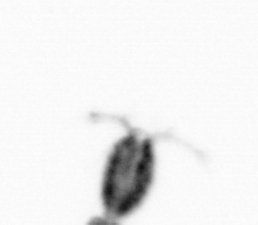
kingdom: Animalia
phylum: Arthropoda
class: Copepoda
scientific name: Copepoda
